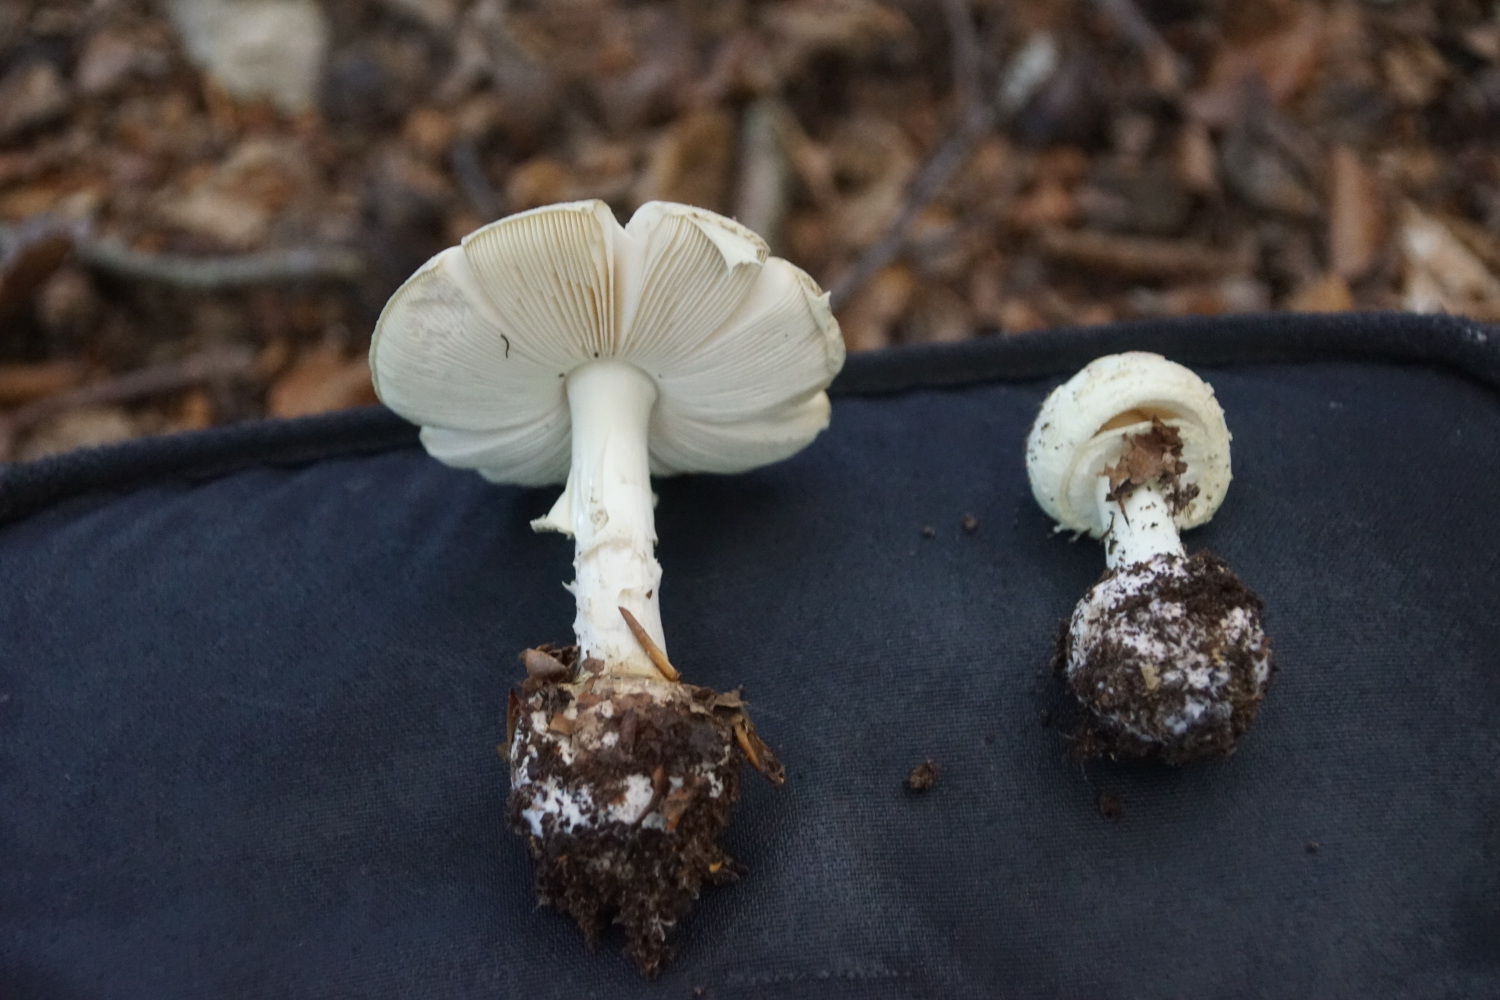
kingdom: Fungi
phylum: Basidiomycota
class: Agaricomycetes
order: Agaricales
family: Amanitaceae
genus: Amanita
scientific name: Amanita citrina
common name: False death-cap
